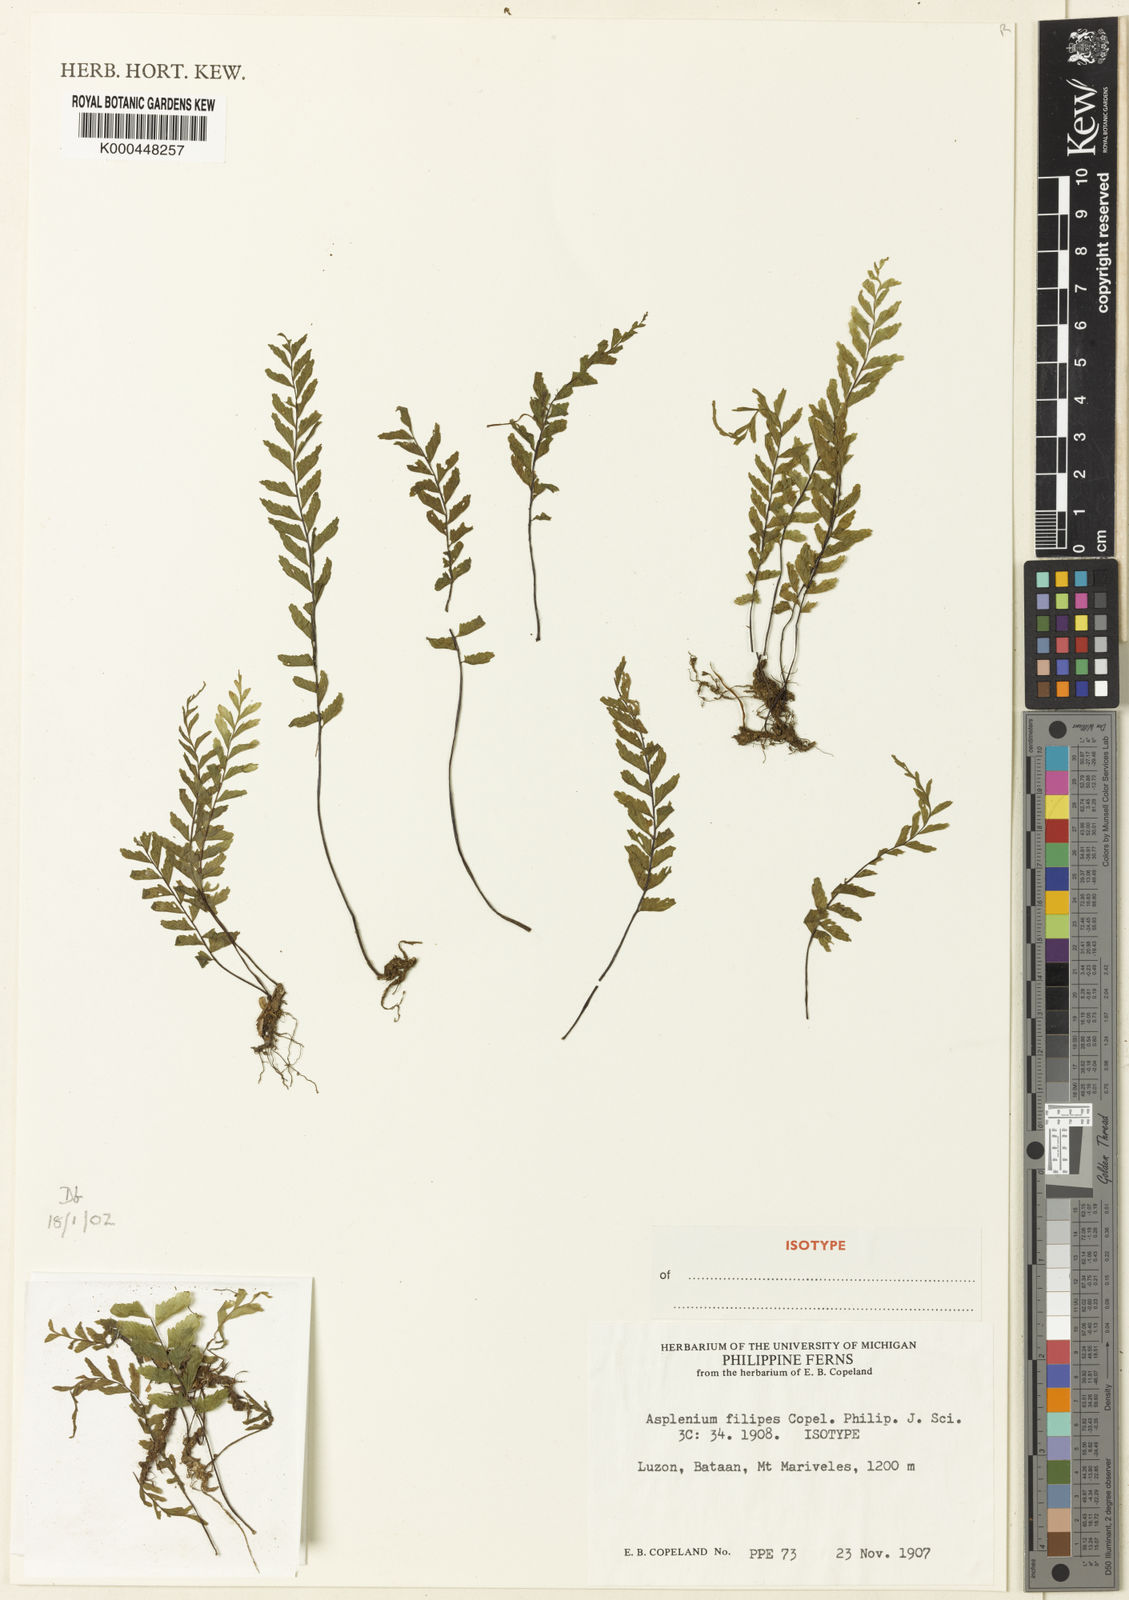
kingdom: Plantae
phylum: Tracheophyta
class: Polypodiopsida
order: Polypodiales
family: Aspleniaceae
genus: Hymenasplenium
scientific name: Hymenasplenium filipes
